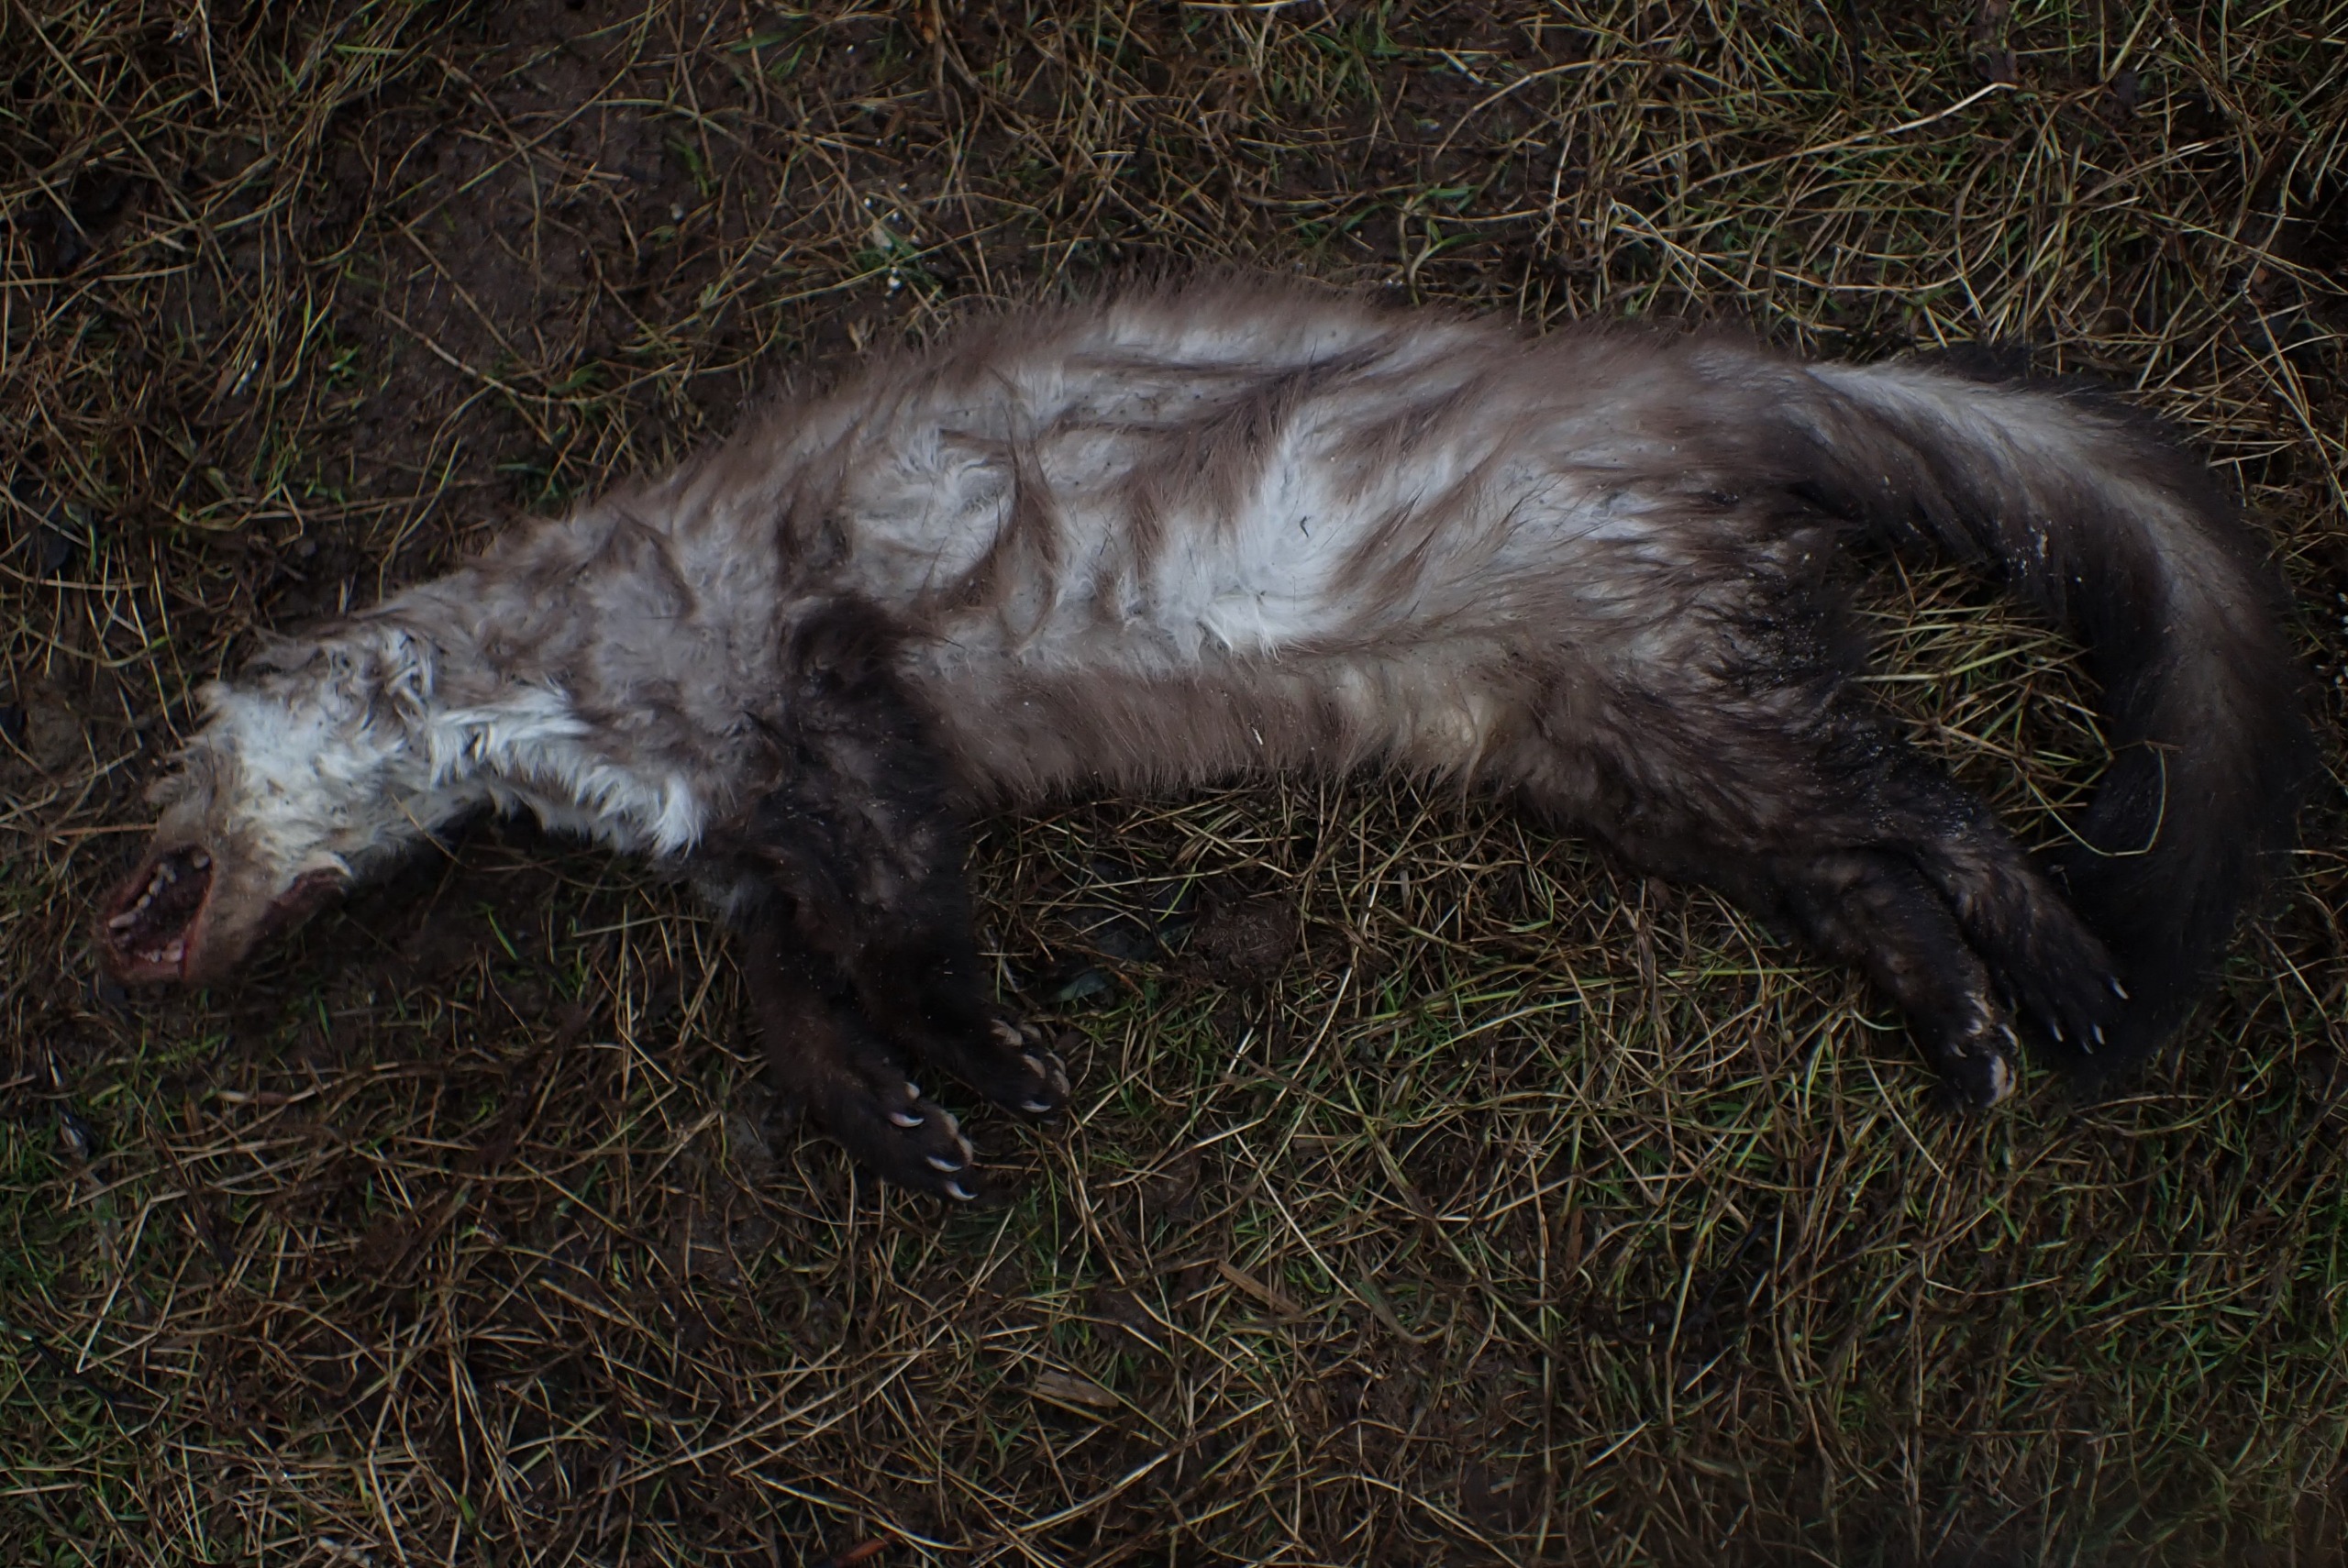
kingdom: Animalia
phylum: Chordata
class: Mammalia
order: Carnivora
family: Mustelidae
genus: Martes
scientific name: Martes foina
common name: Husmår
